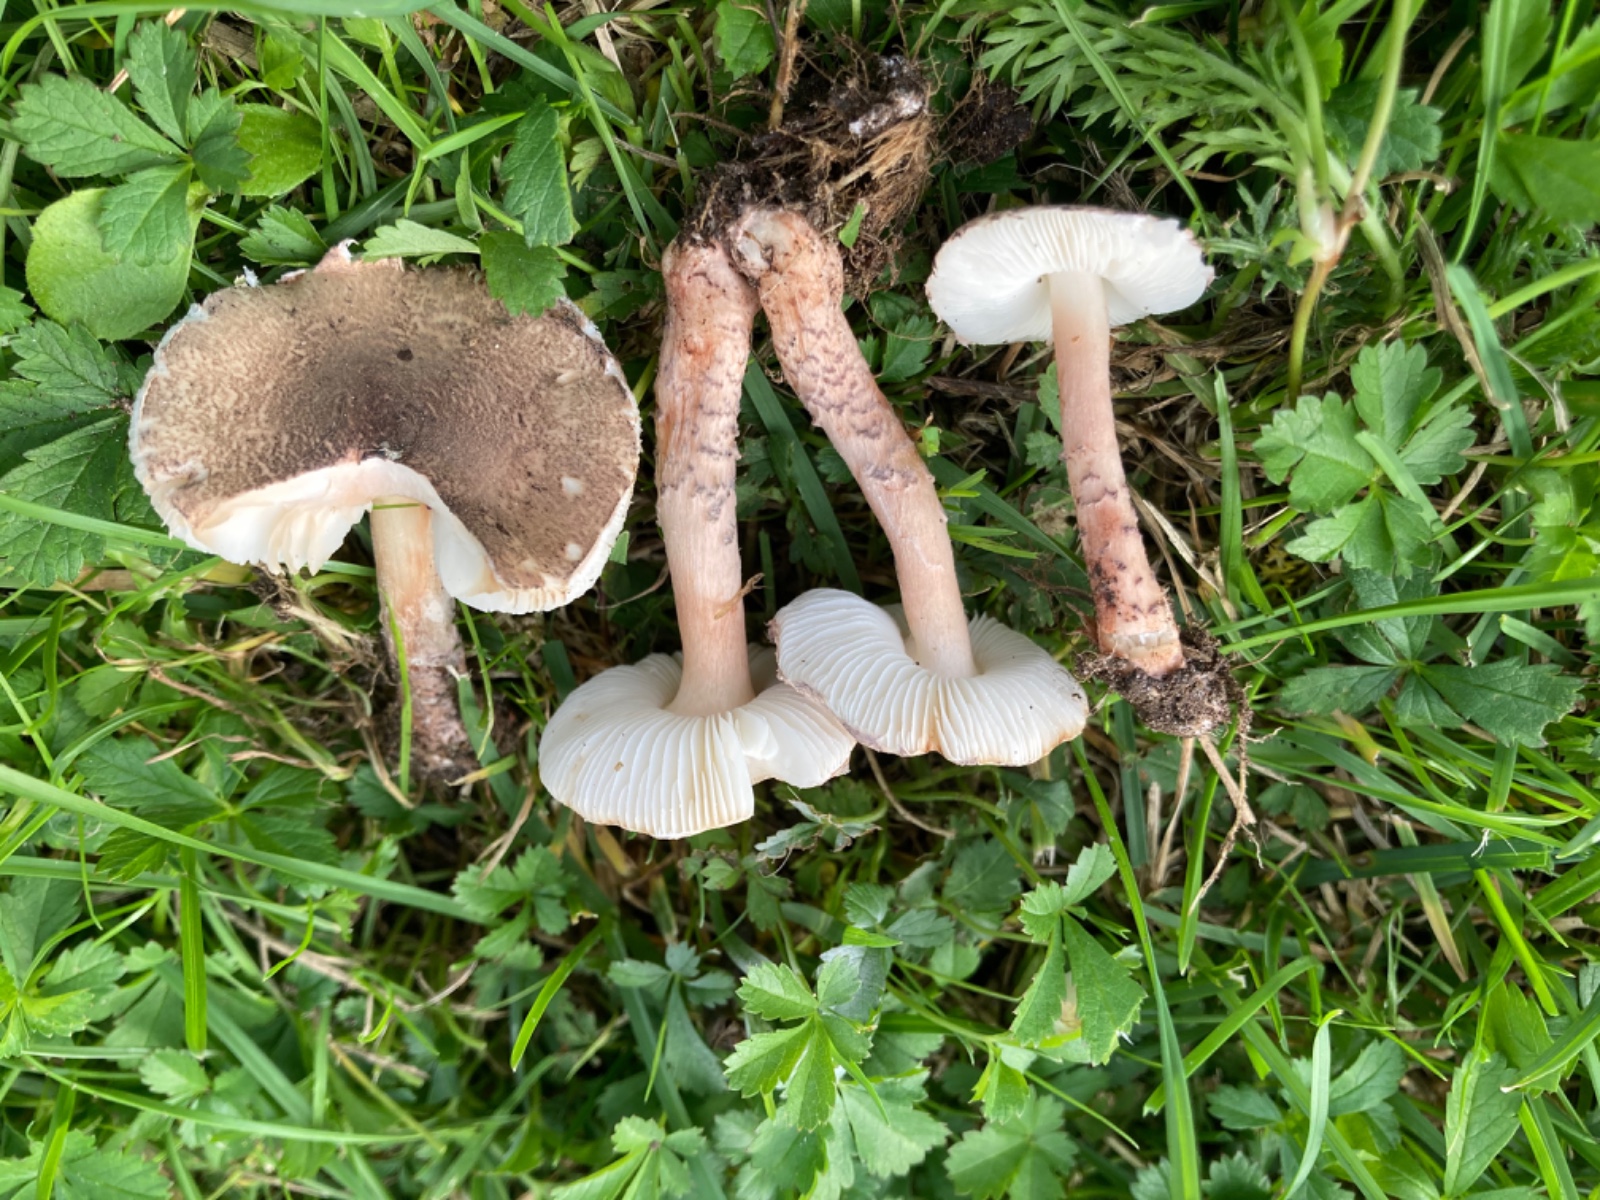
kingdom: Fungi
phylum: Basidiomycota
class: Agaricomycetes
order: Agaricales
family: Agaricaceae
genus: Lepiota
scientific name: Lepiota brunneoincarnata
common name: brunrød parasolhat
